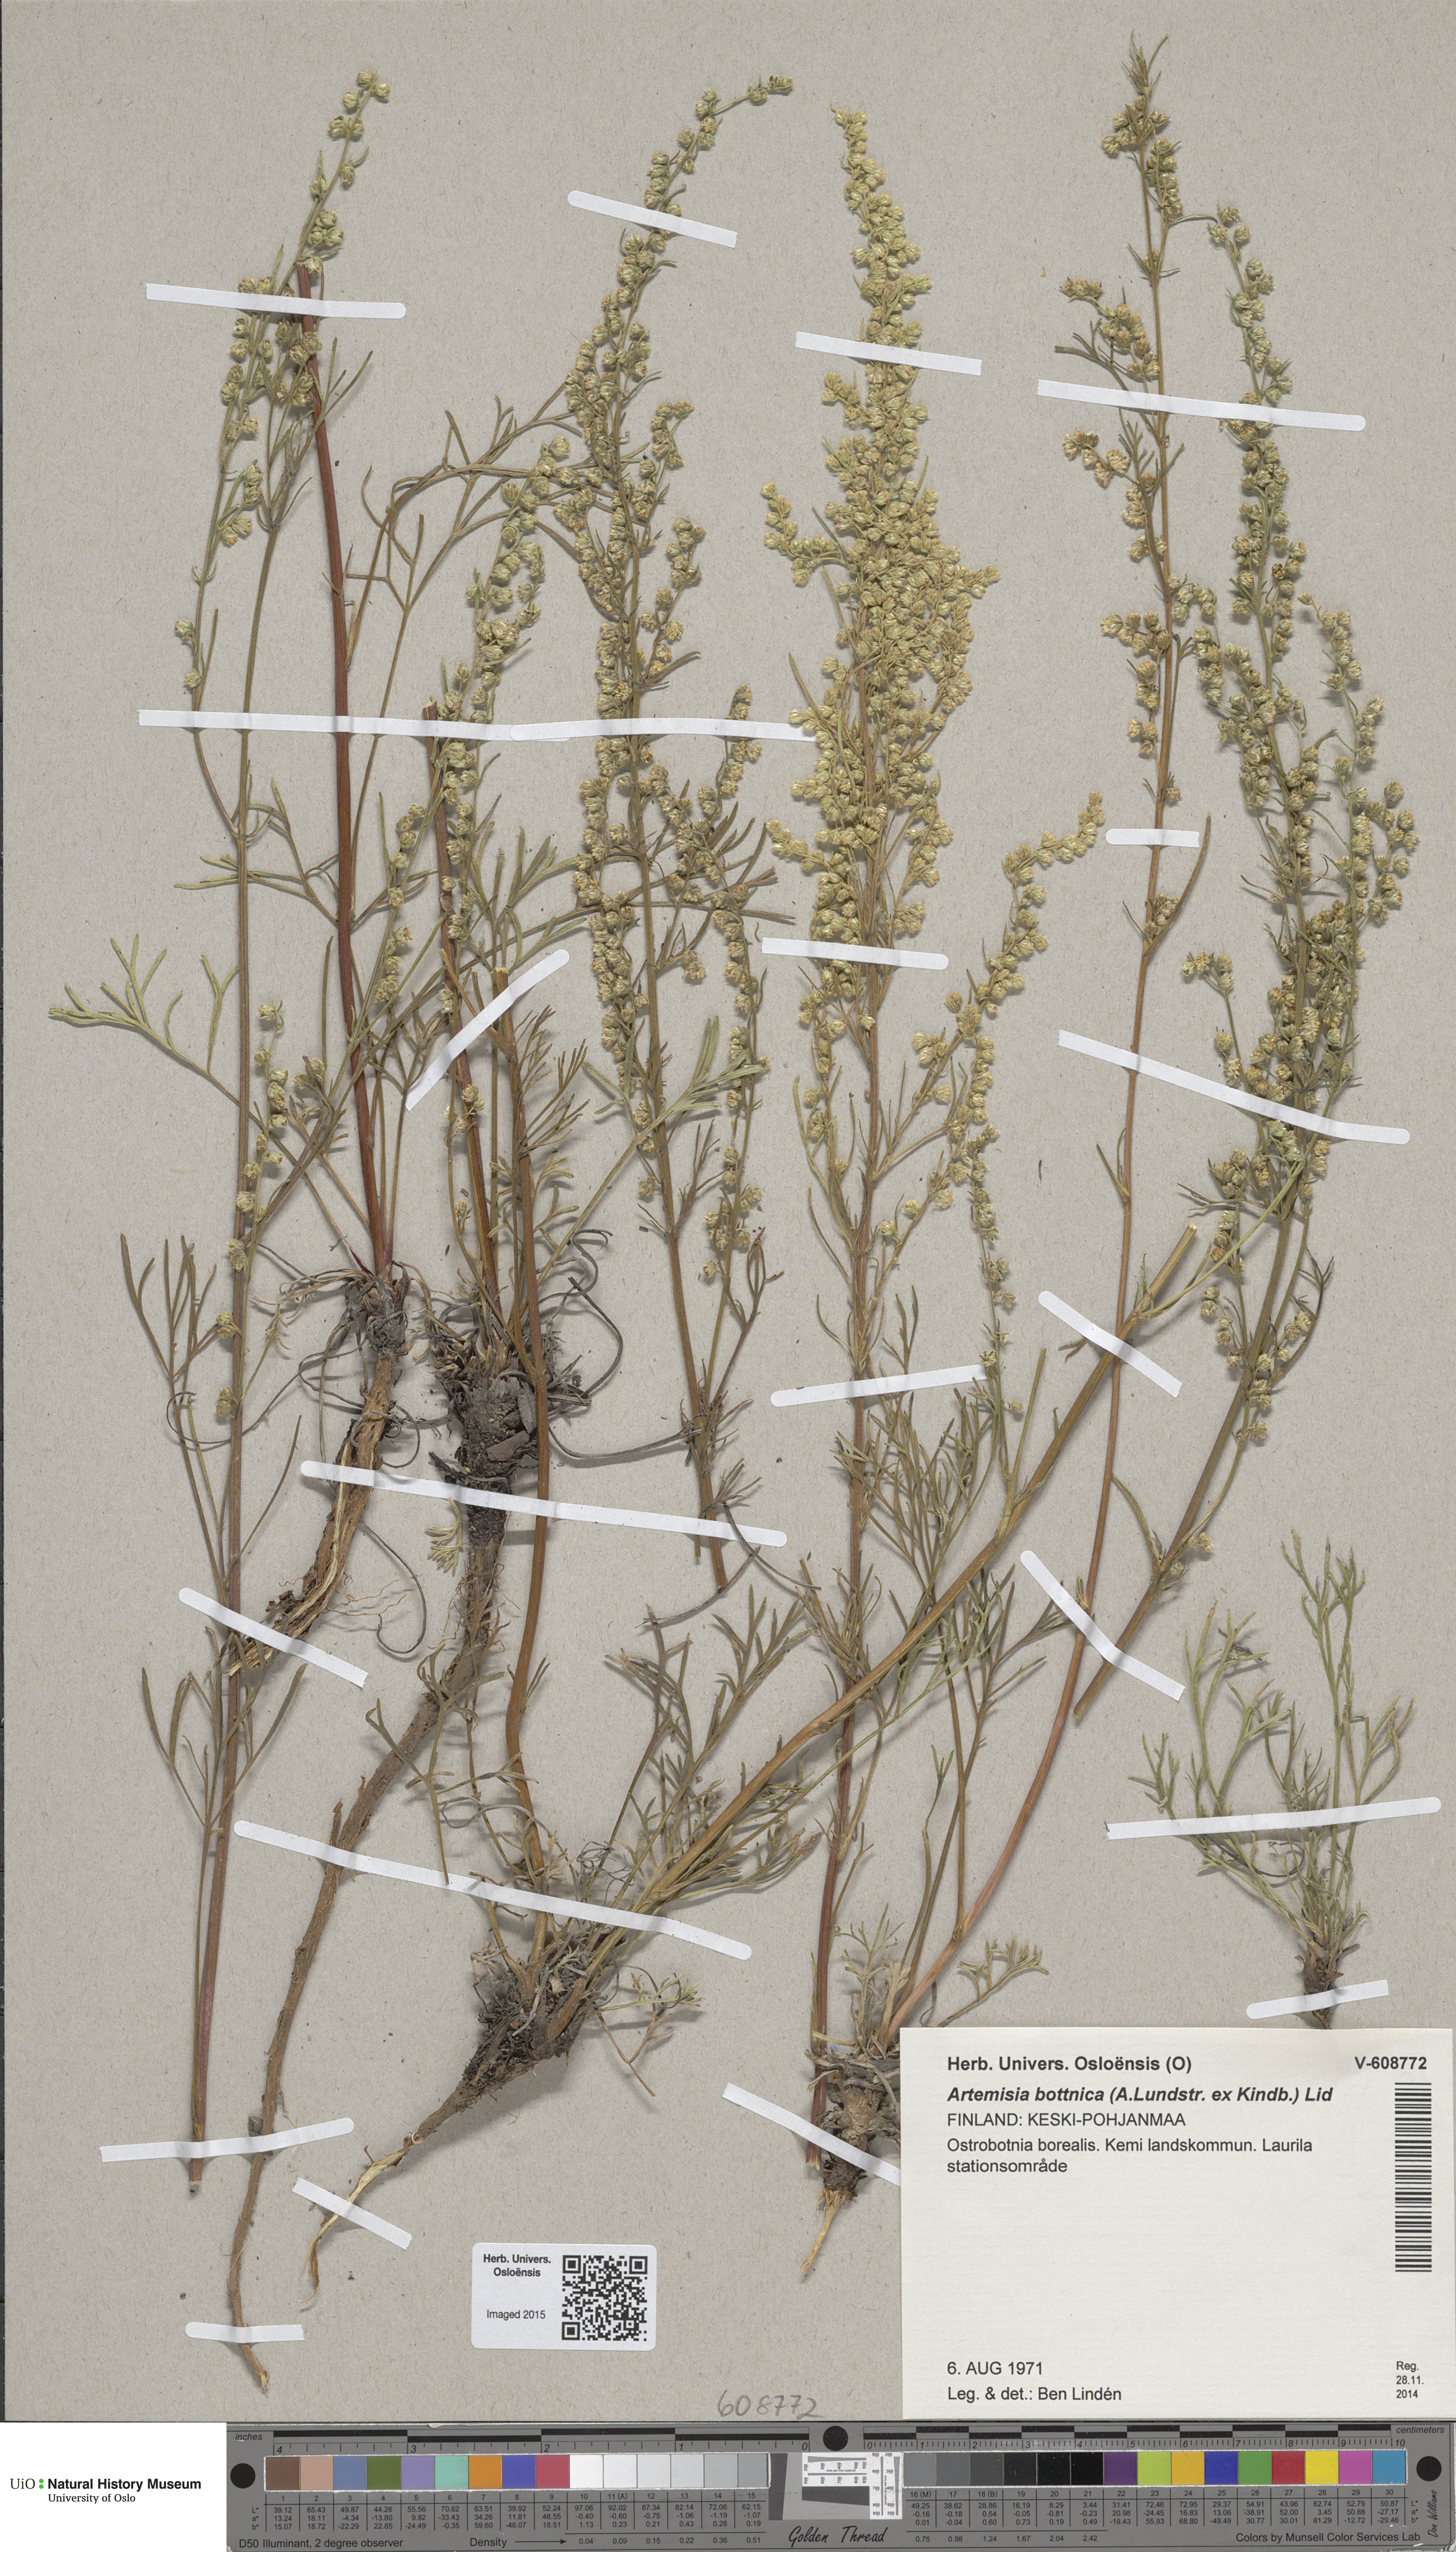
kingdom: Plantae
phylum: Tracheophyta
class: Magnoliopsida
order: Asterales
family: Asteraceae
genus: Artemisia
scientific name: Artemisia bottnica
